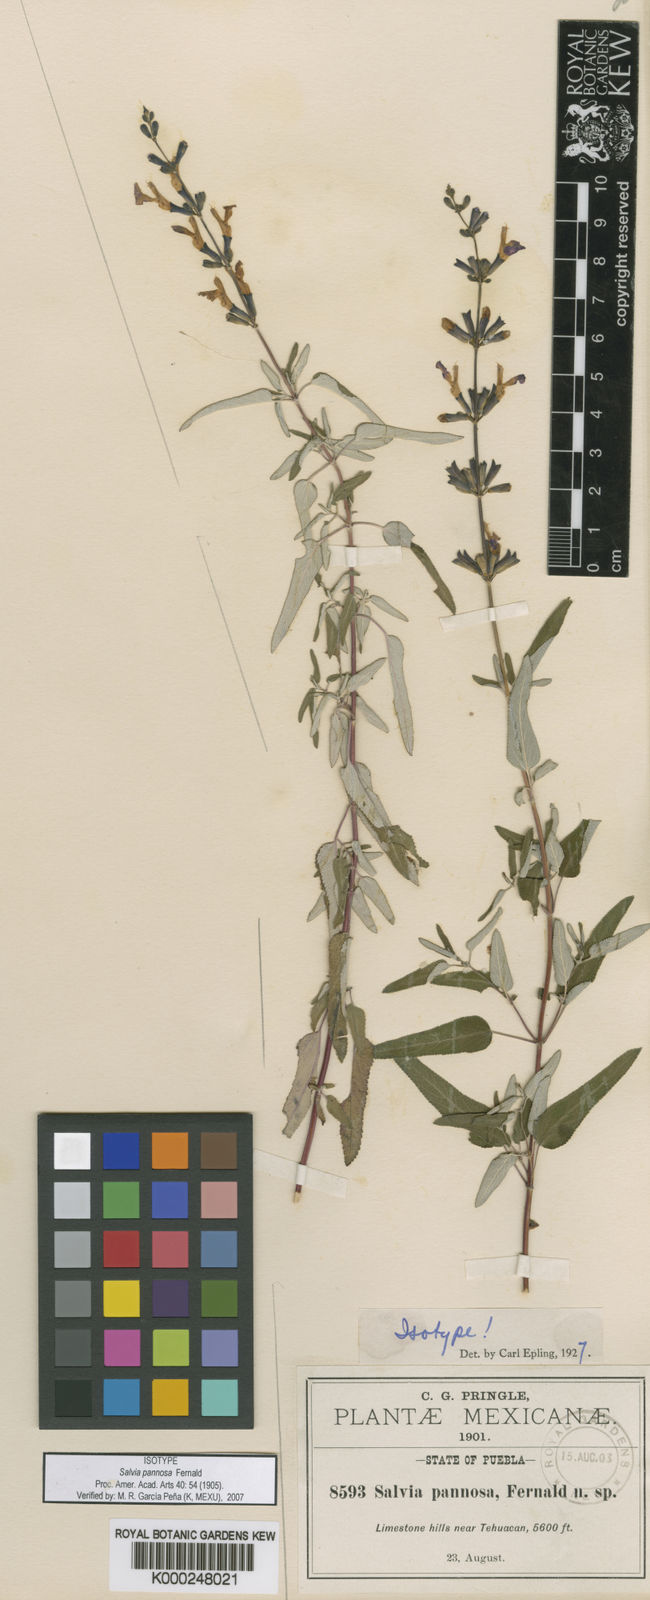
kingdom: Plantae
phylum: Tracheophyta
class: Magnoliopsida
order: Lamiales
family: Lamiaceae
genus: Salvia
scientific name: Salvia pannosa
